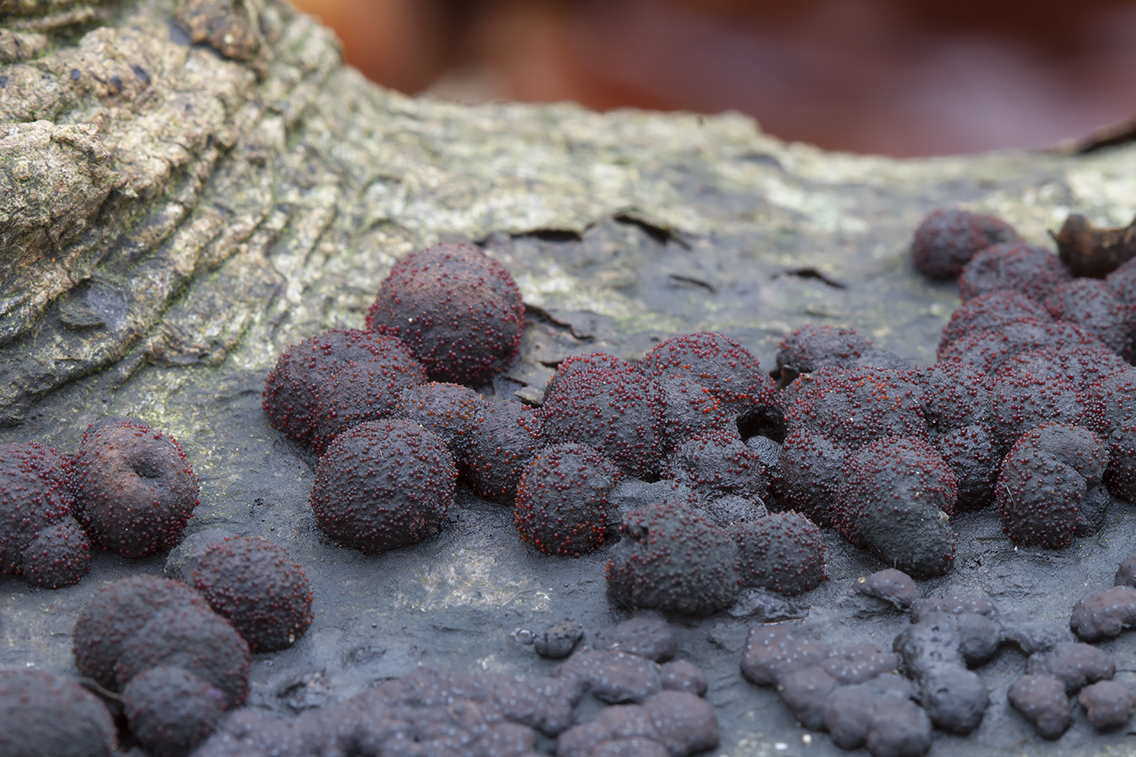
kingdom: Fungi
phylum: Ascomycota
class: Sordariomycetes
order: Hypocreales
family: Nectriaceae
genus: Cosmospora
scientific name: Cosmospora arxii
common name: kuljordbær-cinnobersvamp
